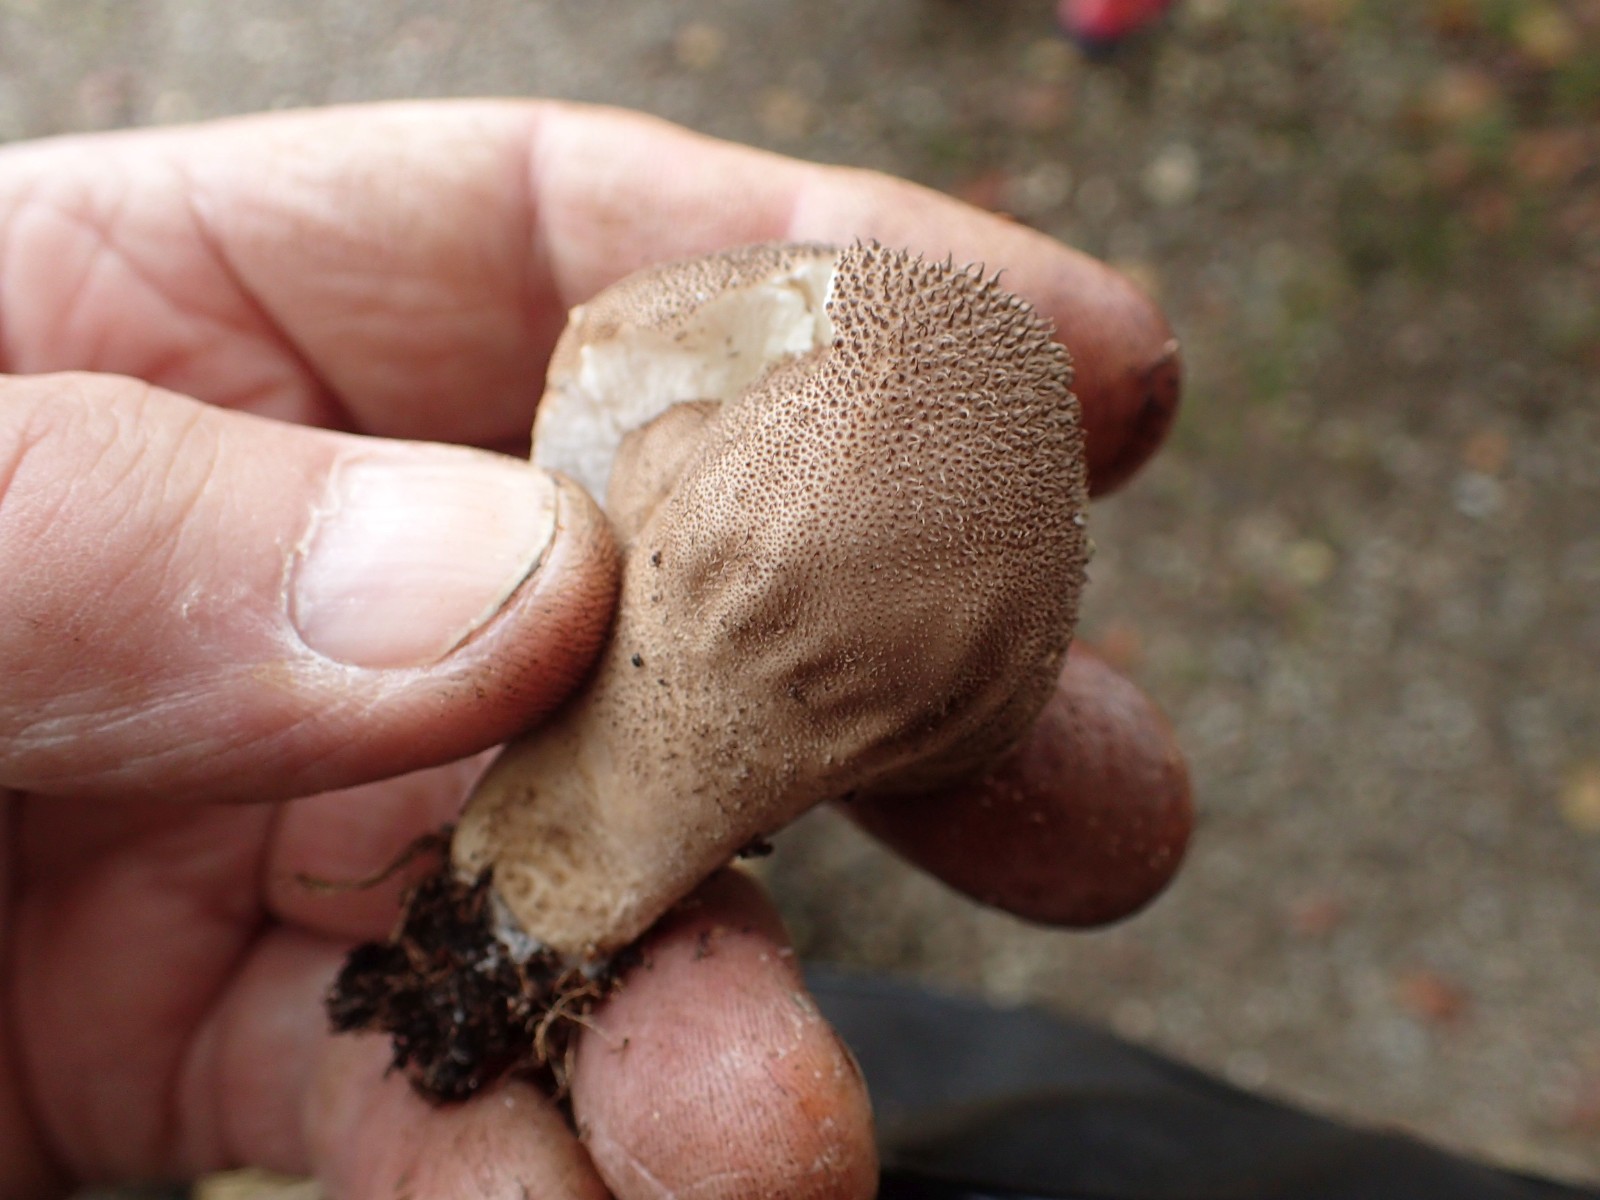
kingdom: Fungi
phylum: Basidiomycota
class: Agaricomycetes
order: Agaricales
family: Agaricaceae
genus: Lycoperdon
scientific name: Lycoperdon
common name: støvbold
